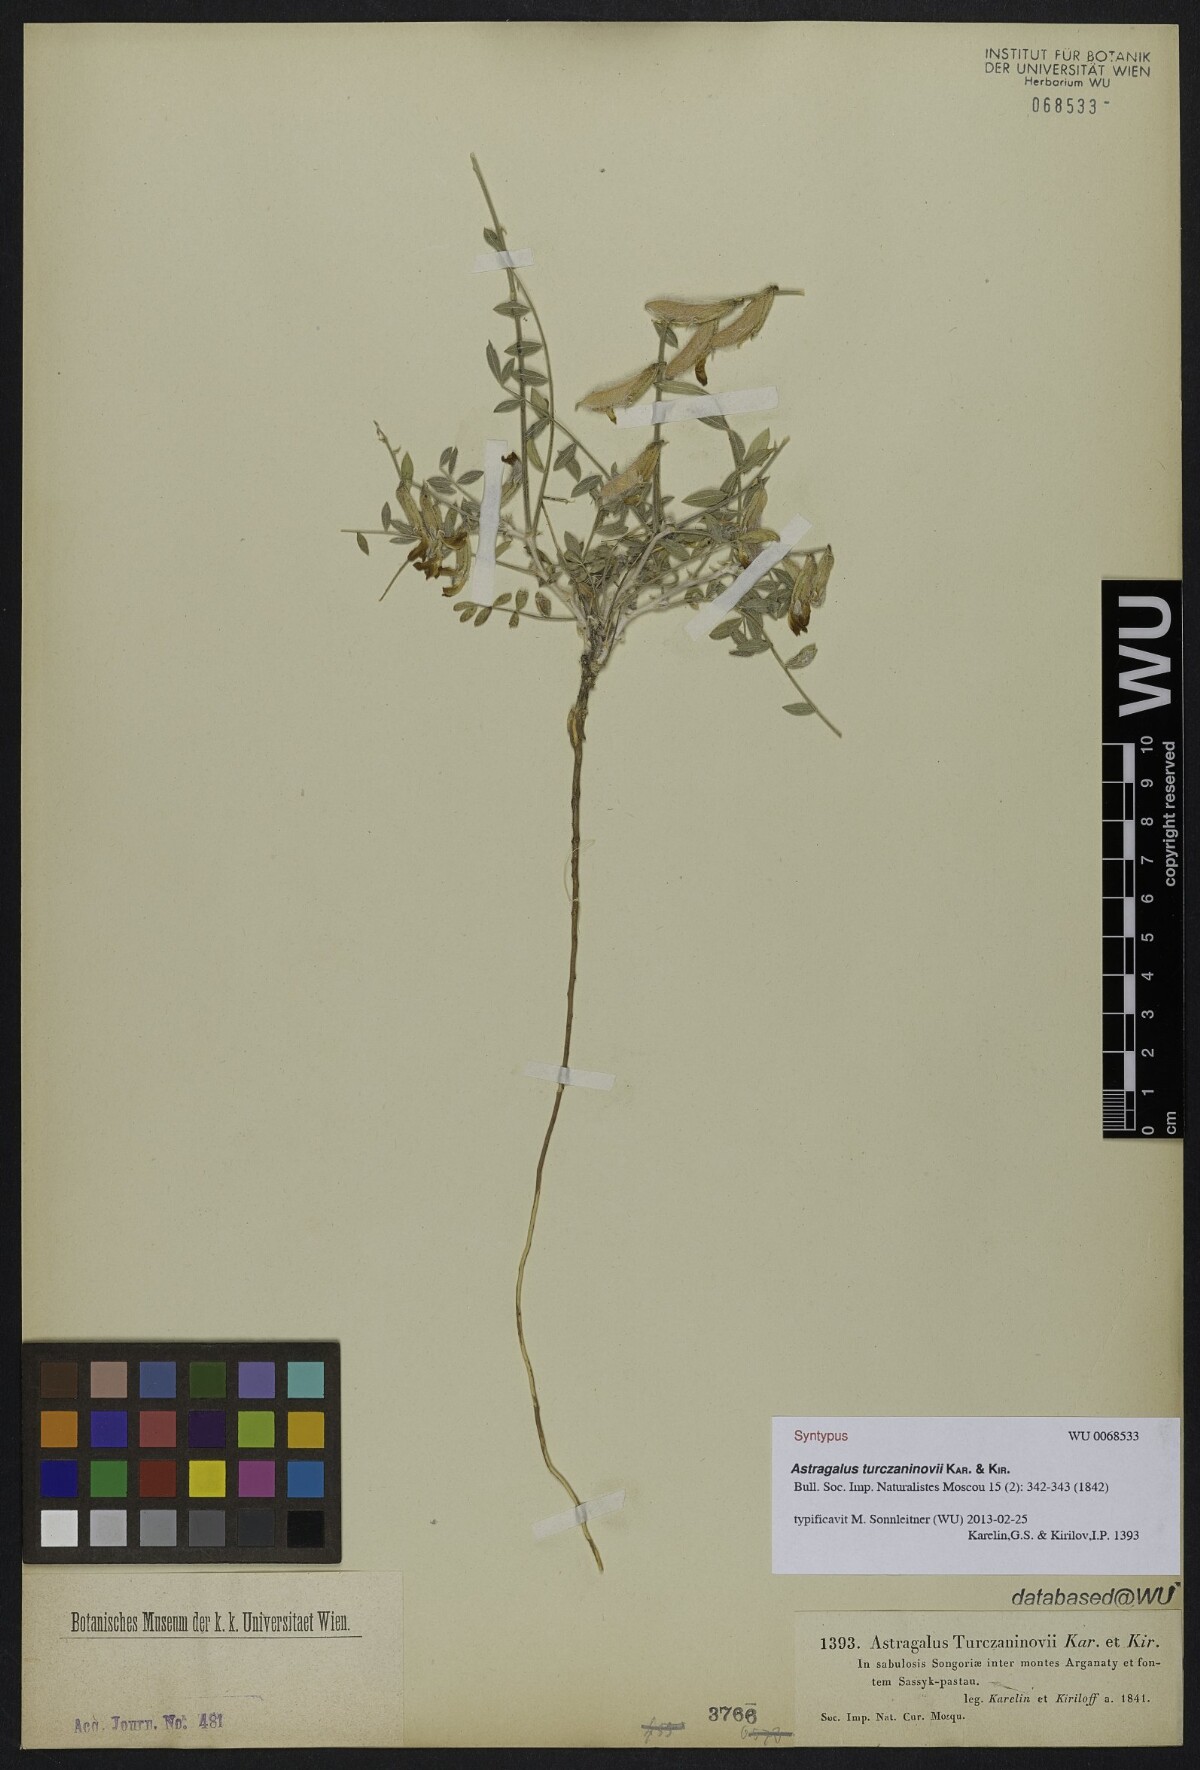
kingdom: Plantae
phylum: Tracheophyta
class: Magnoliopsida
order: Fabales
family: Fabaceae
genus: Astragalus
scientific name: Astragalus turczaninovii
